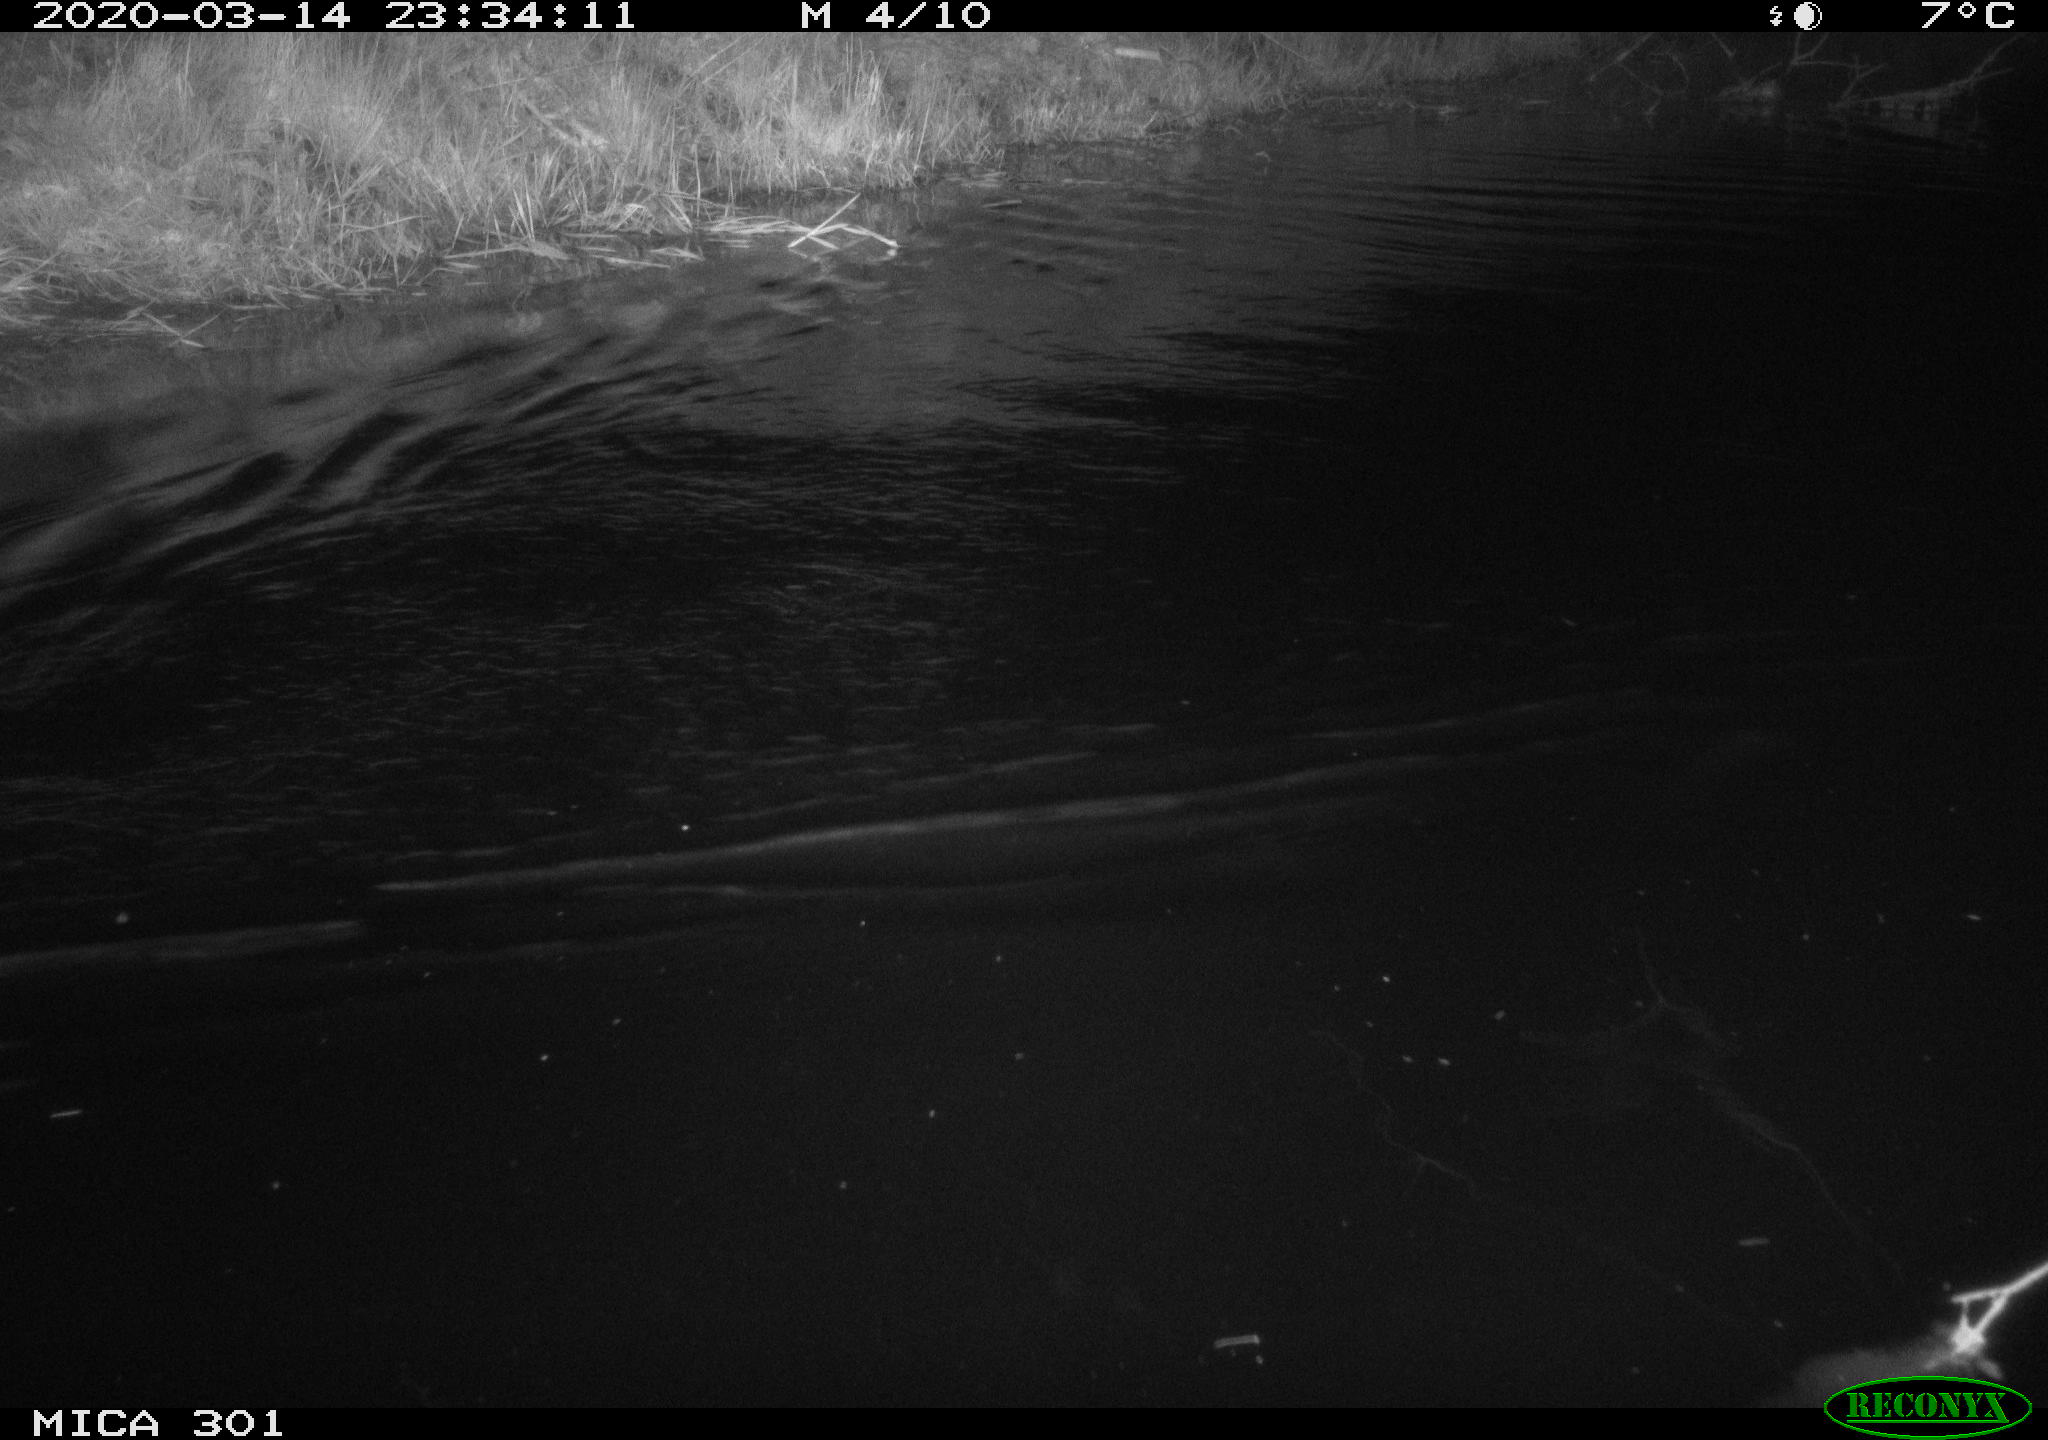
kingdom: Animalia
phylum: Chordata
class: Mammalia
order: Rodentia
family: Castoridae
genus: Castor
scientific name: Castor fiber
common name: Eurasian beaver
